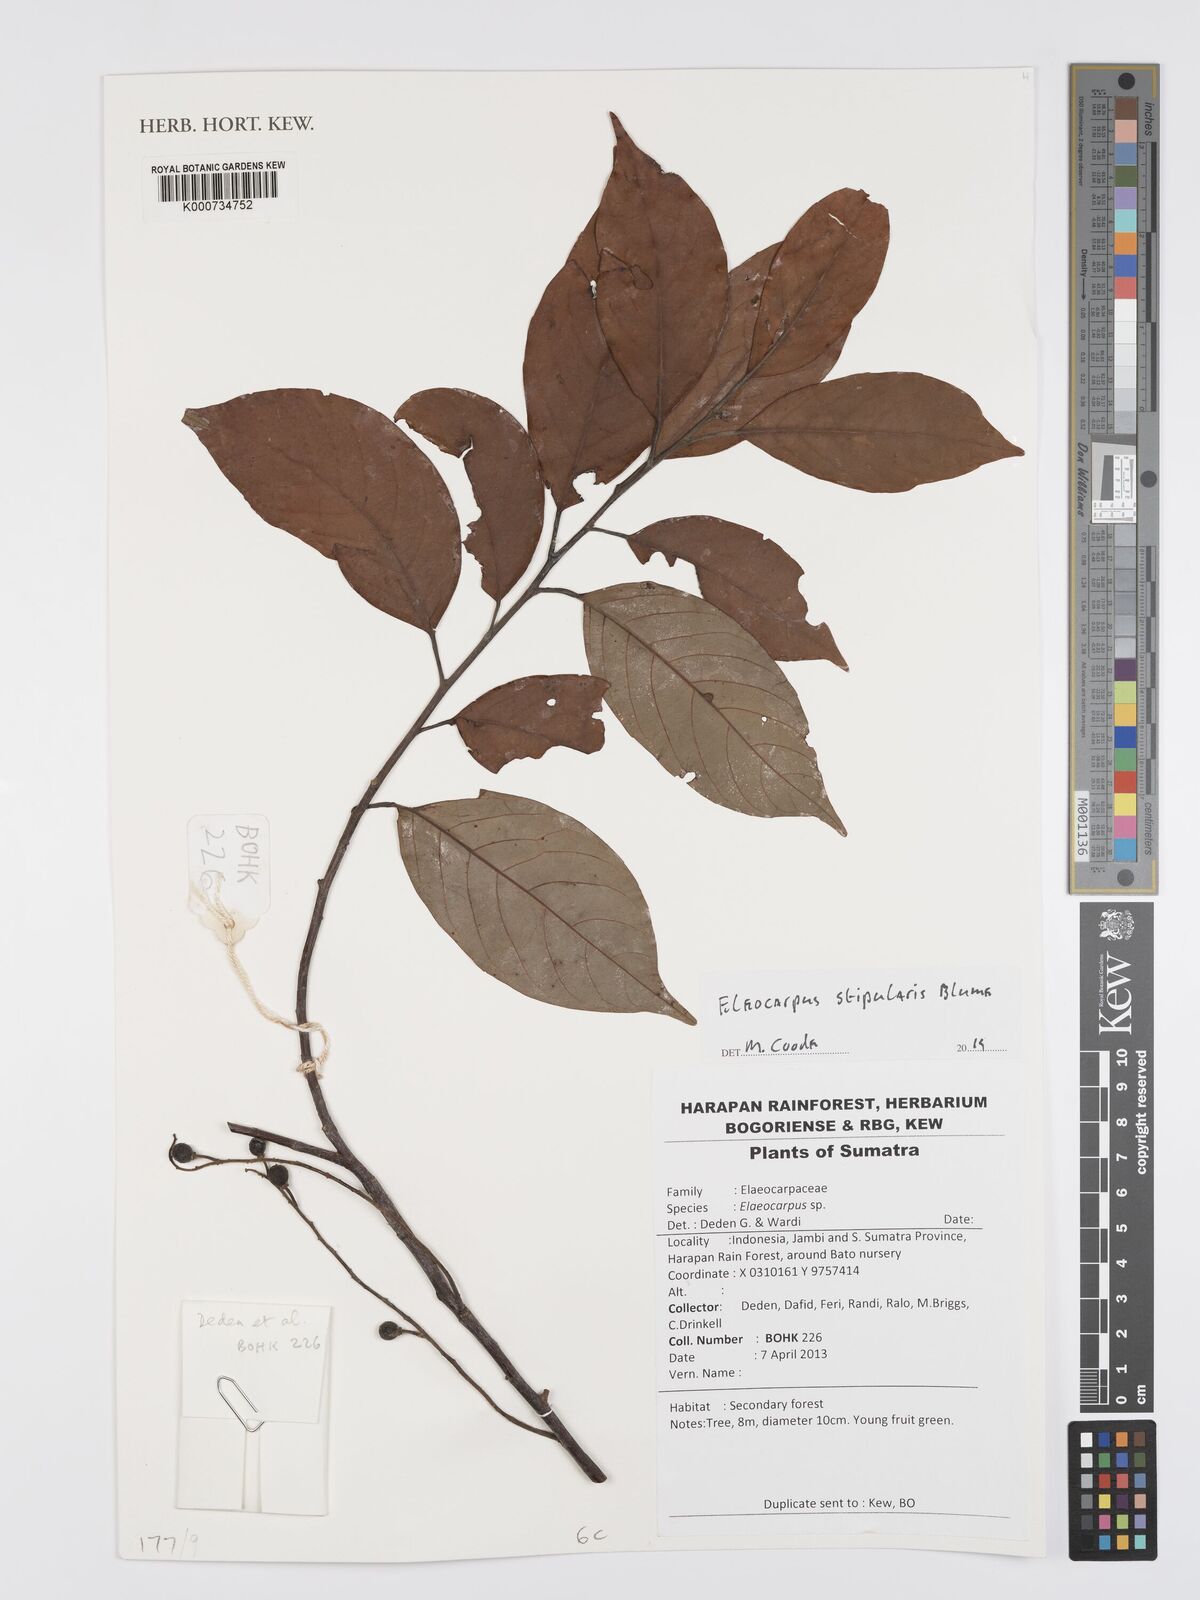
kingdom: Plantae
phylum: Tracheophyta
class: Magnoliopsida
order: Oxalidales
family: Elaeocarpaceae
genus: Elaeocarpus
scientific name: Elaeocarpus stipularis
